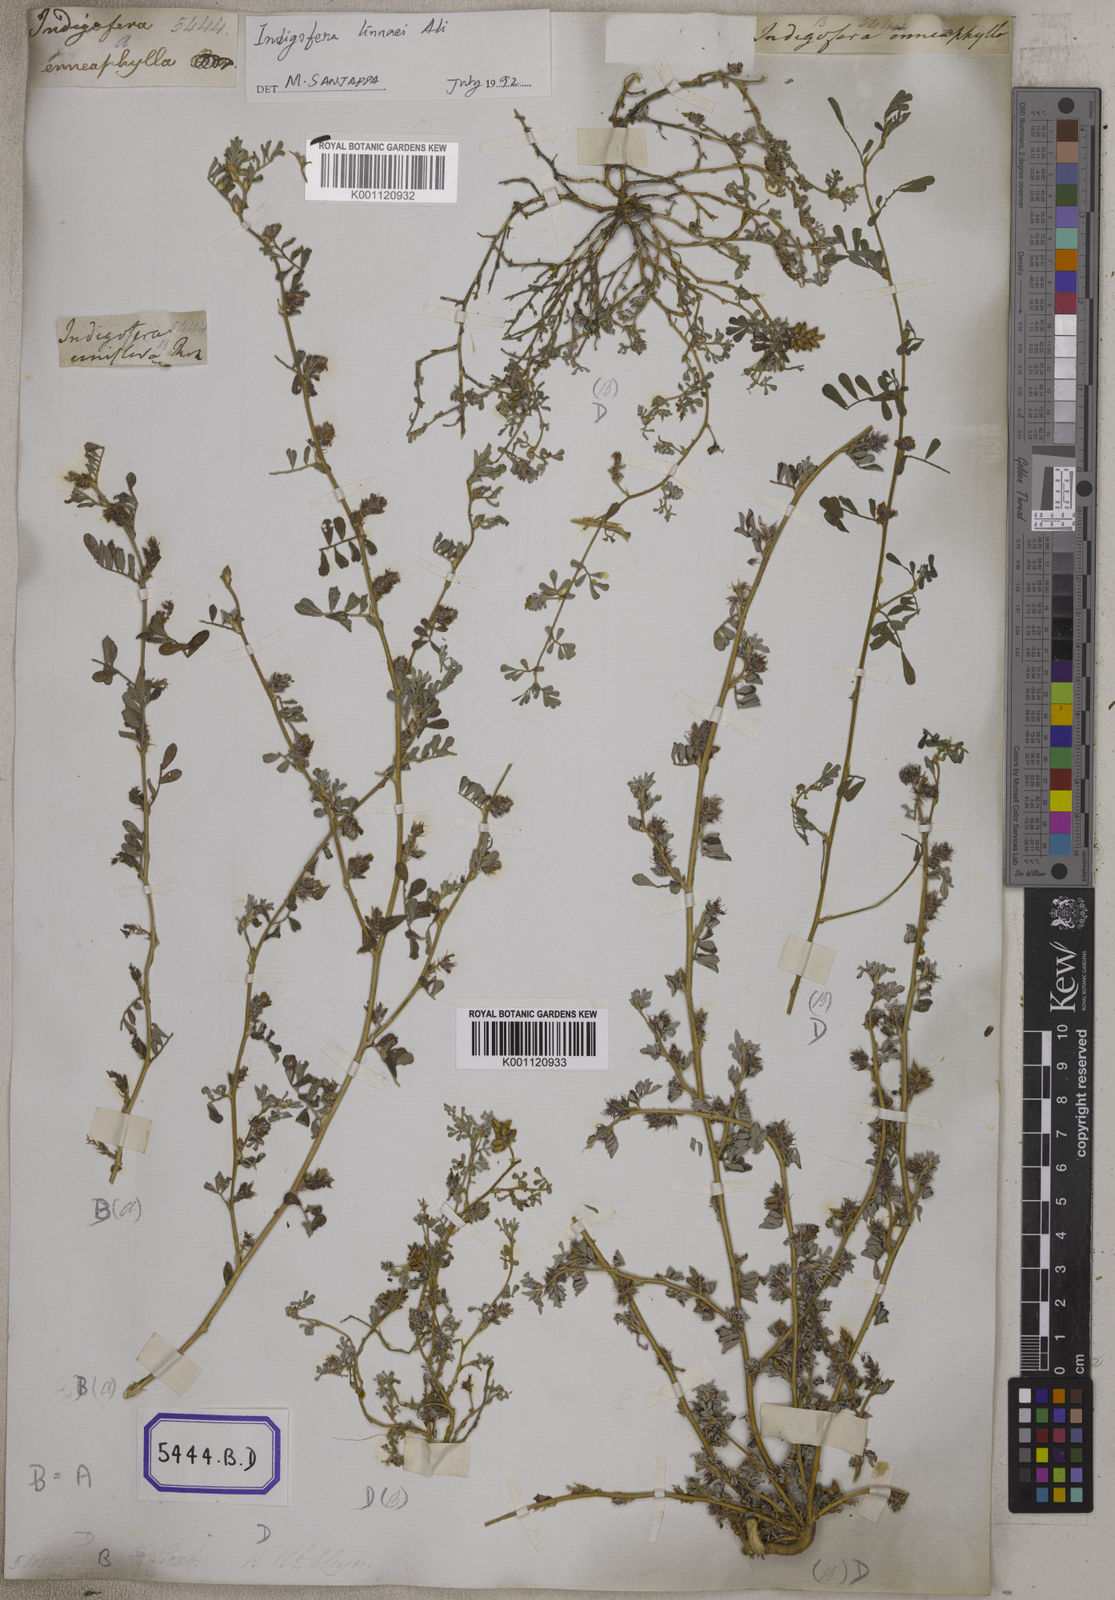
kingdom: Plantae
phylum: Tracheophyta
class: Magnoliopsida
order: Fabales
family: Fabaceae
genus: Indigofera
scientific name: Indigofera linnaei
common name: Nine-leaf indigo
